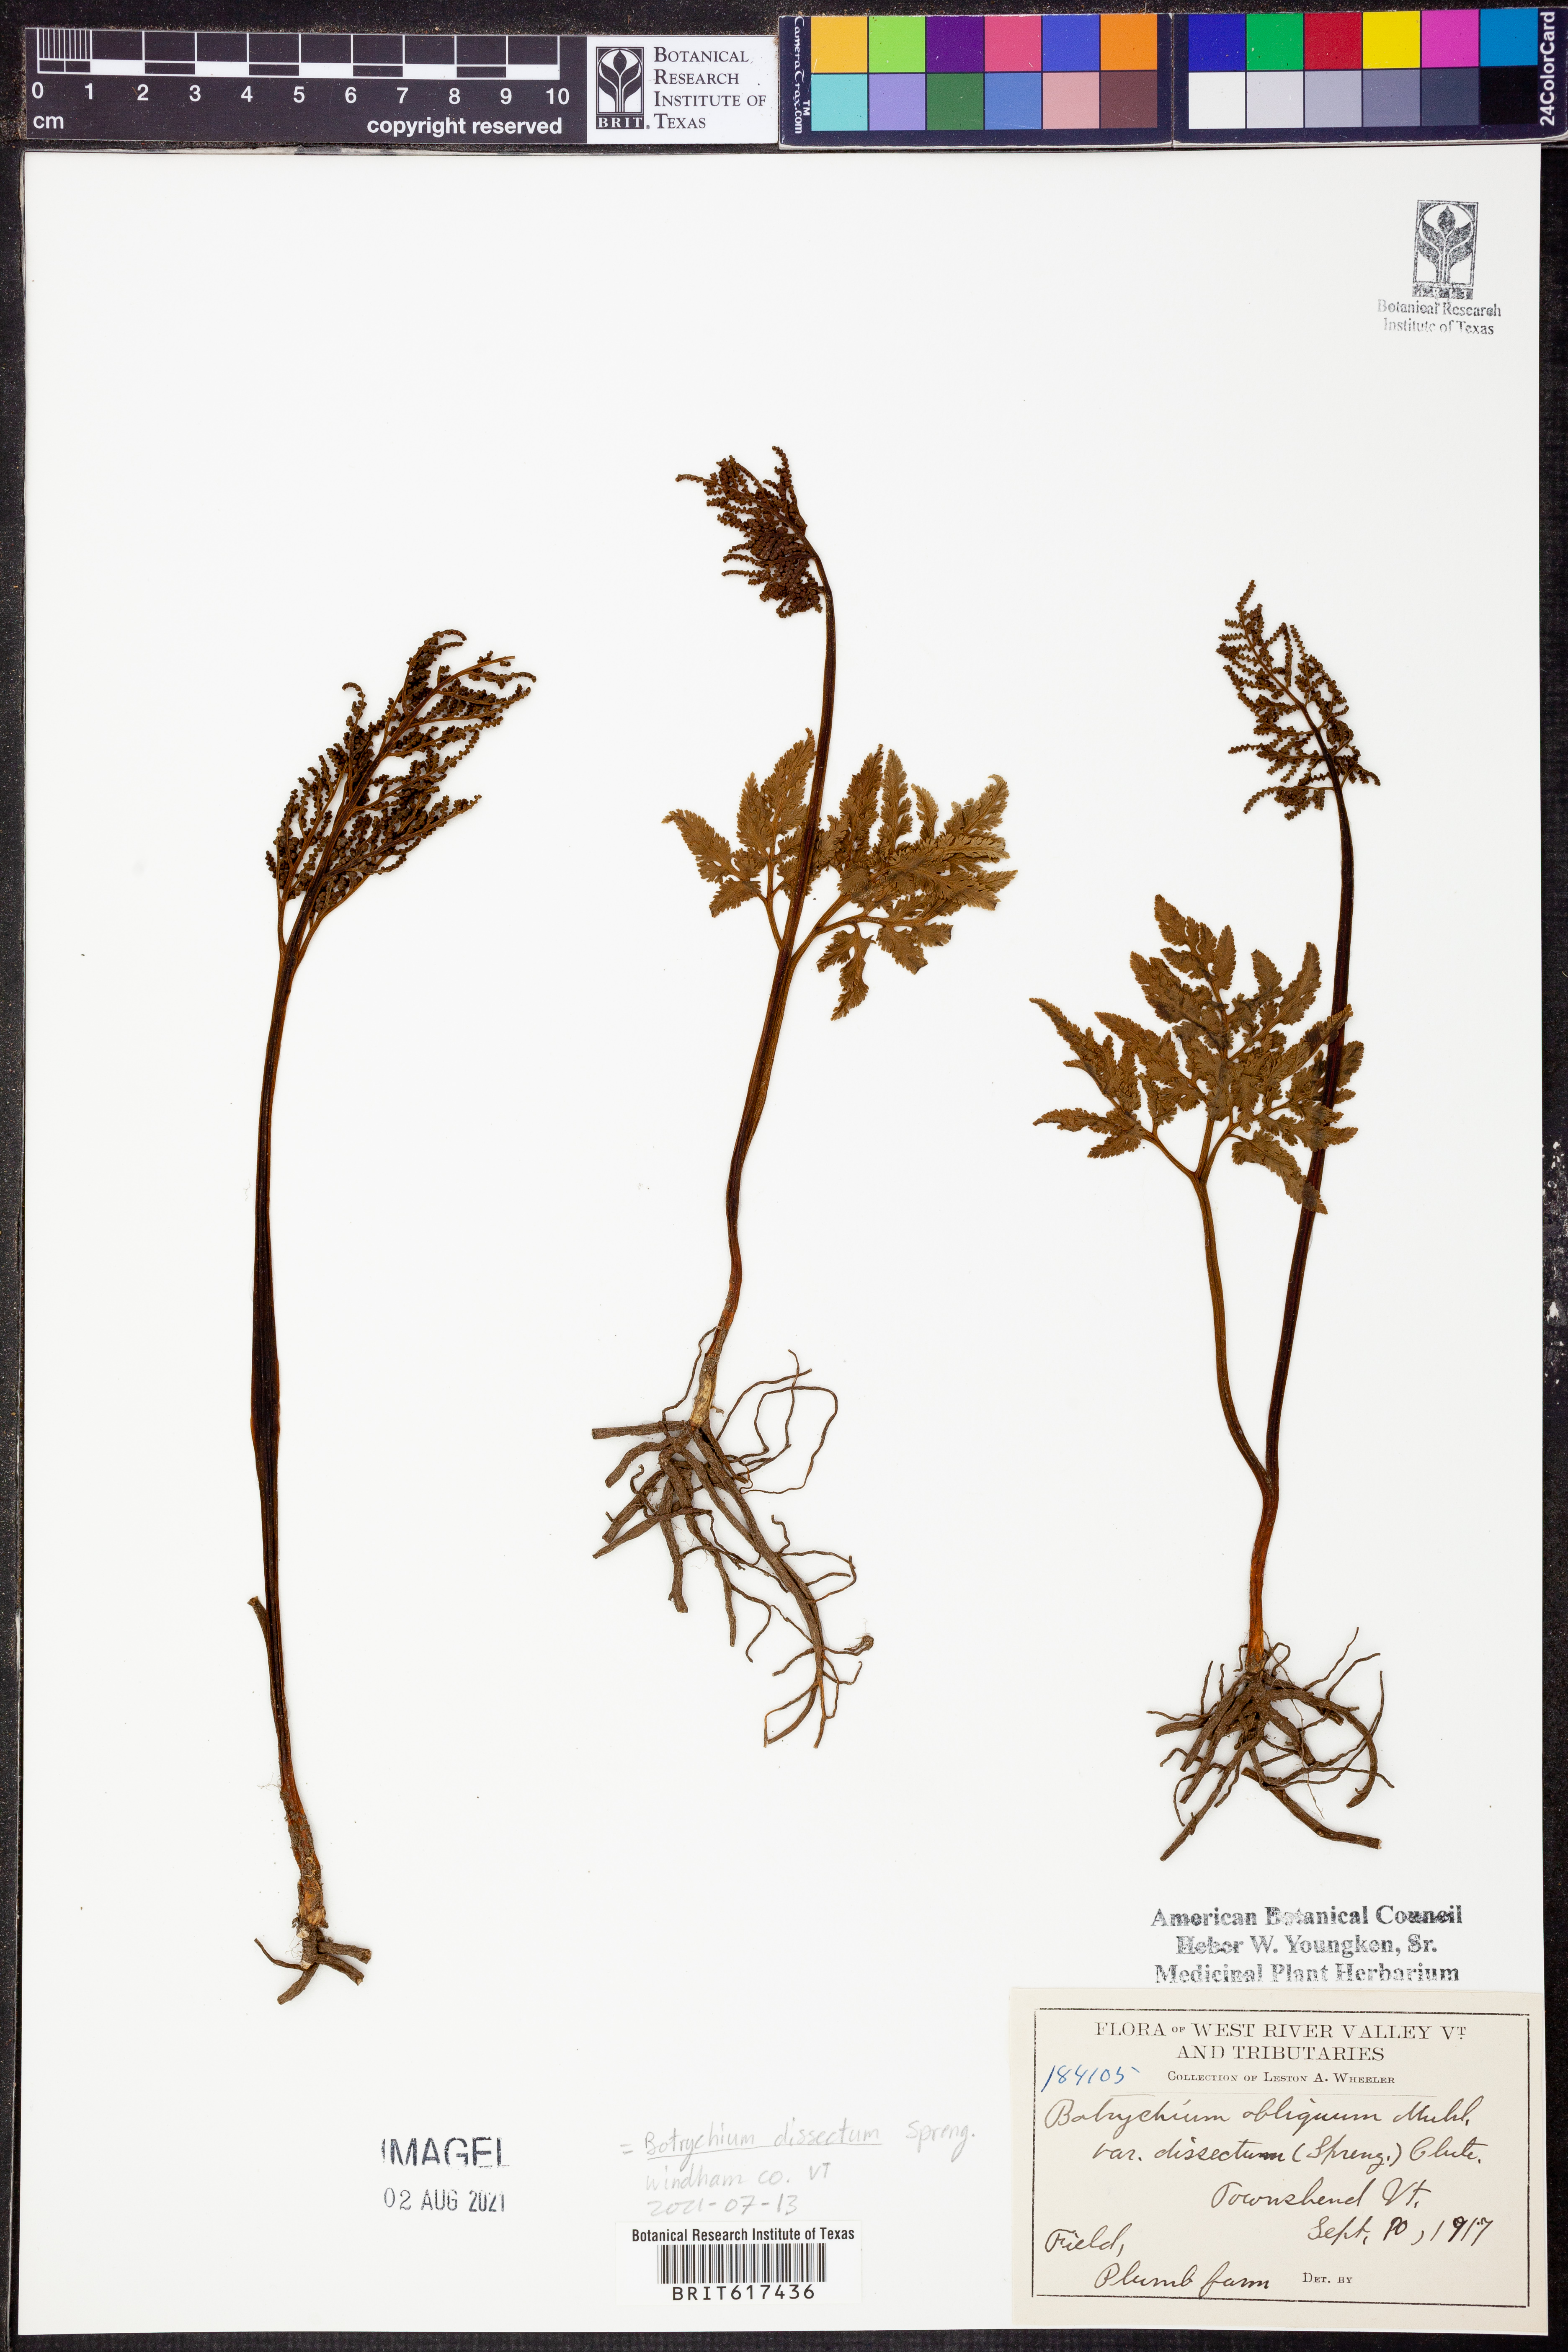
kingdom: Plantae
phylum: Tracheophyta
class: Polypodiopsida
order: Ophioglossales
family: Ophioglossaceae
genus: Sceptridium
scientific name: Sceptridium dissectum
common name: Cut-leaved grapefern
